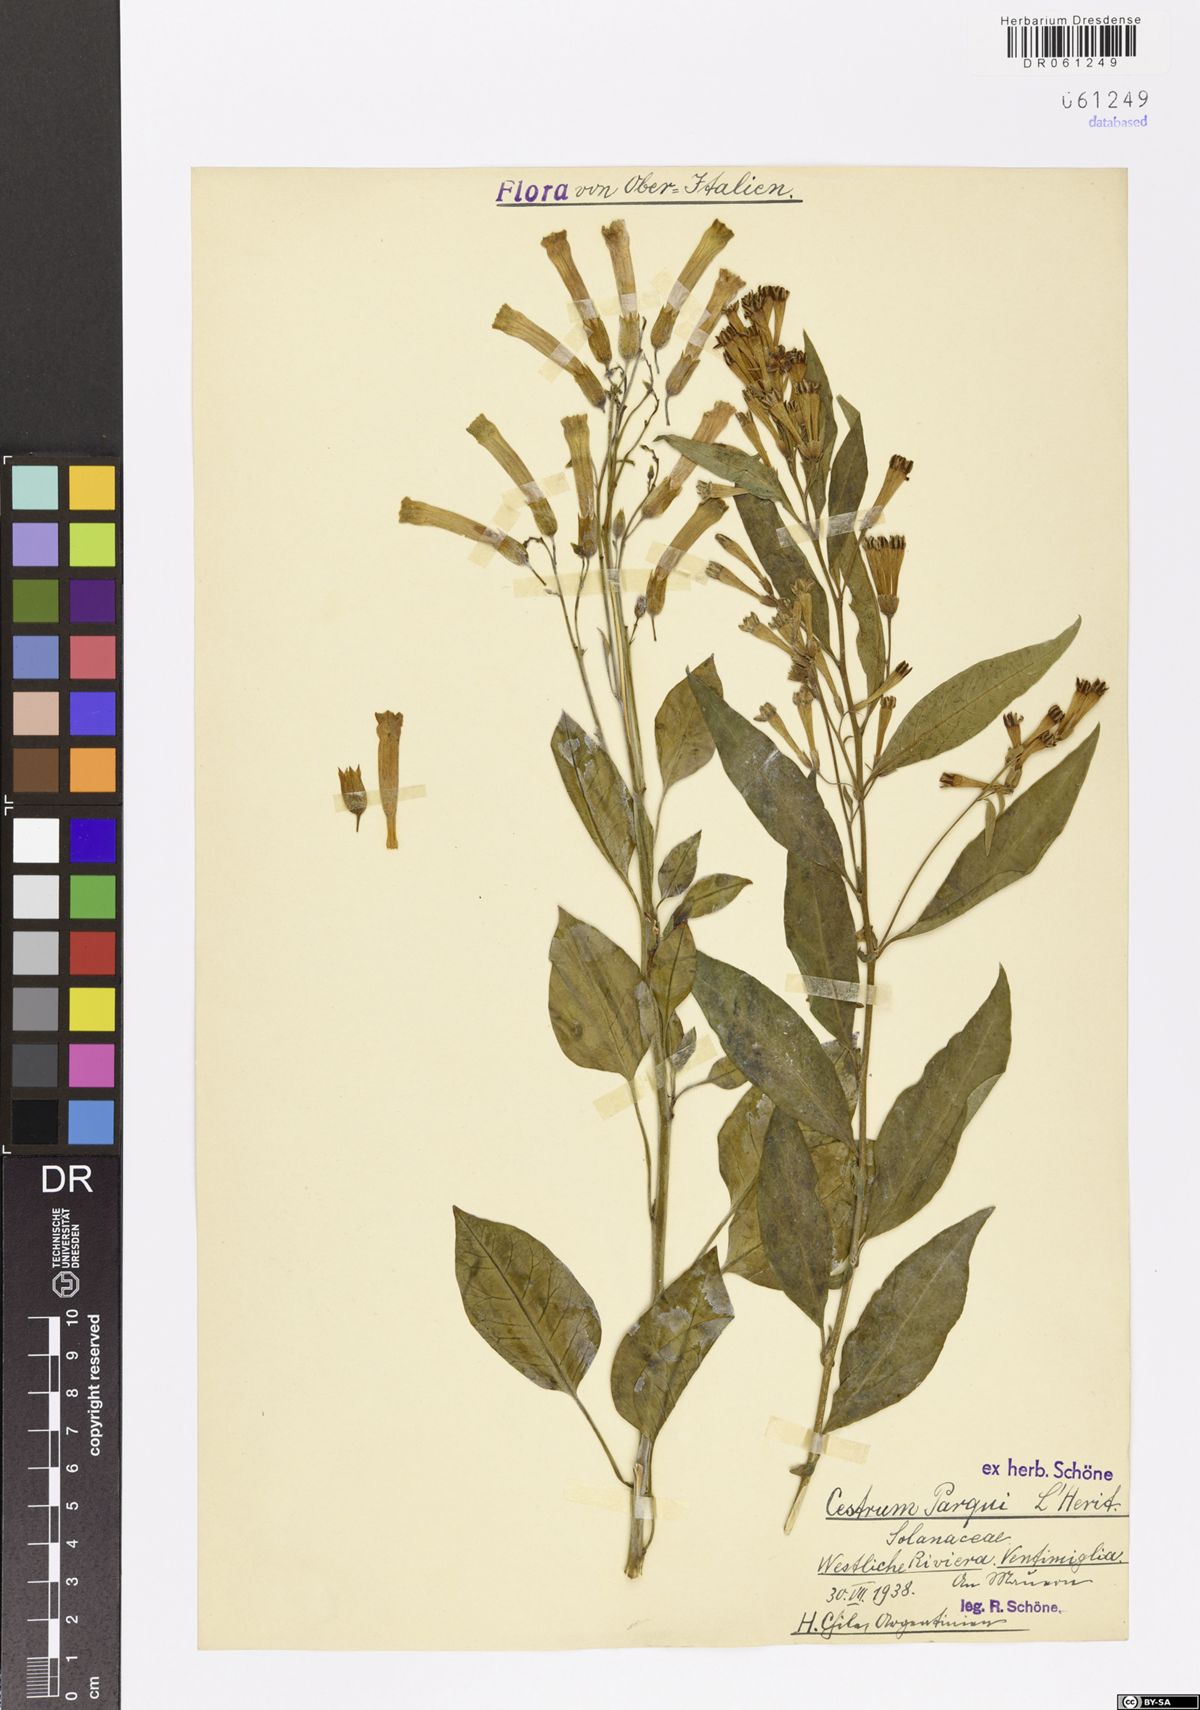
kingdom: Plantae
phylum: Tracheophyta
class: Magnoliopsida
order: Solanales
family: Solanaceae
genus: Cestrum
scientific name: Cestrum thyrsoideum
